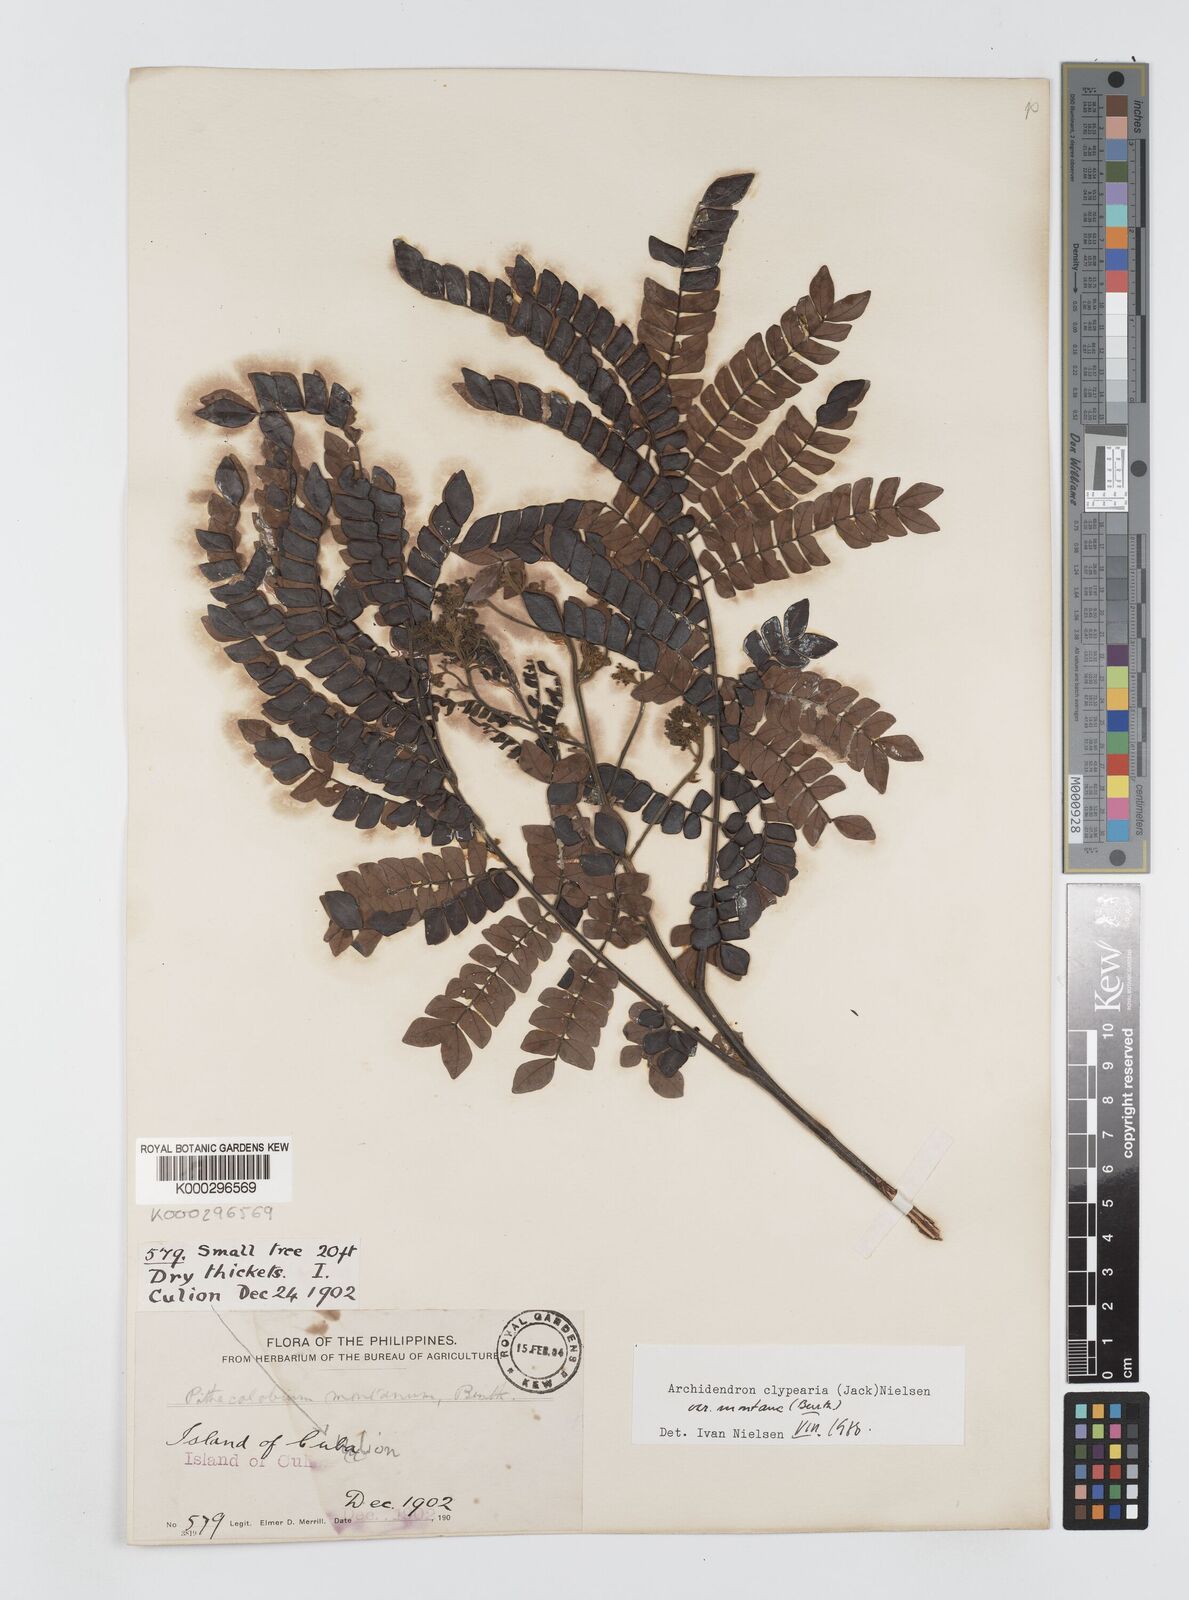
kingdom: Plantae
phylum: Tracheophyta
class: Magnoliopsida
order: Fabales
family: Fabaceae
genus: Archidendron
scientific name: Archidendron clypearia
